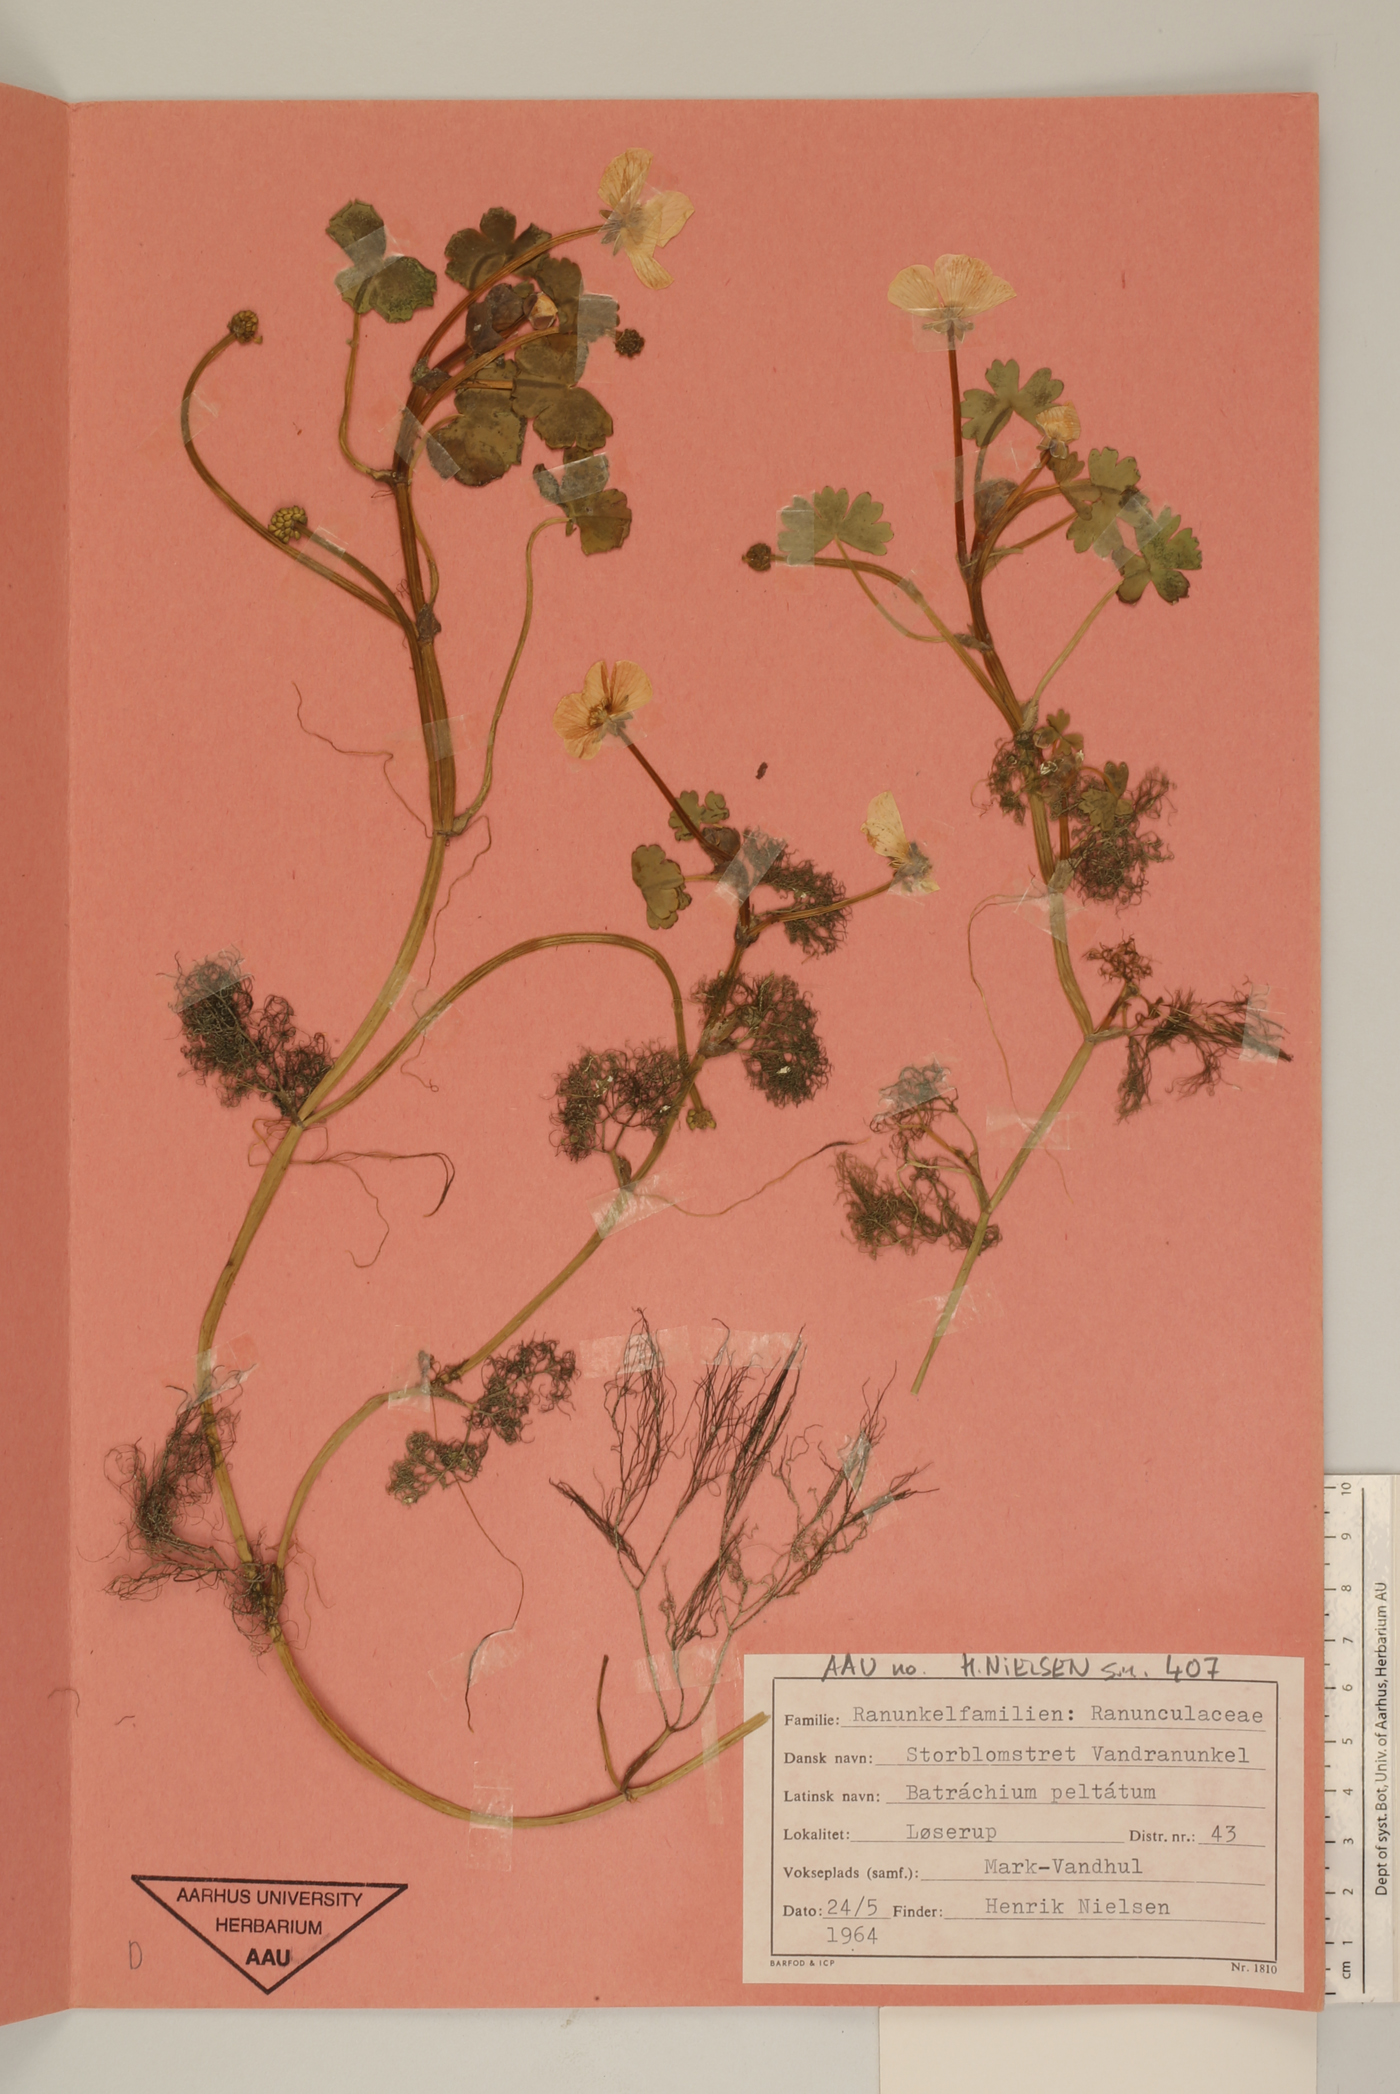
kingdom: Plantae
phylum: Tracheophyta
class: Magnoliopsida
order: Ranunculales
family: Ranunculaceae
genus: Ranunculus
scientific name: Ranunculus peltatus
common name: Pond water-crowfoot
